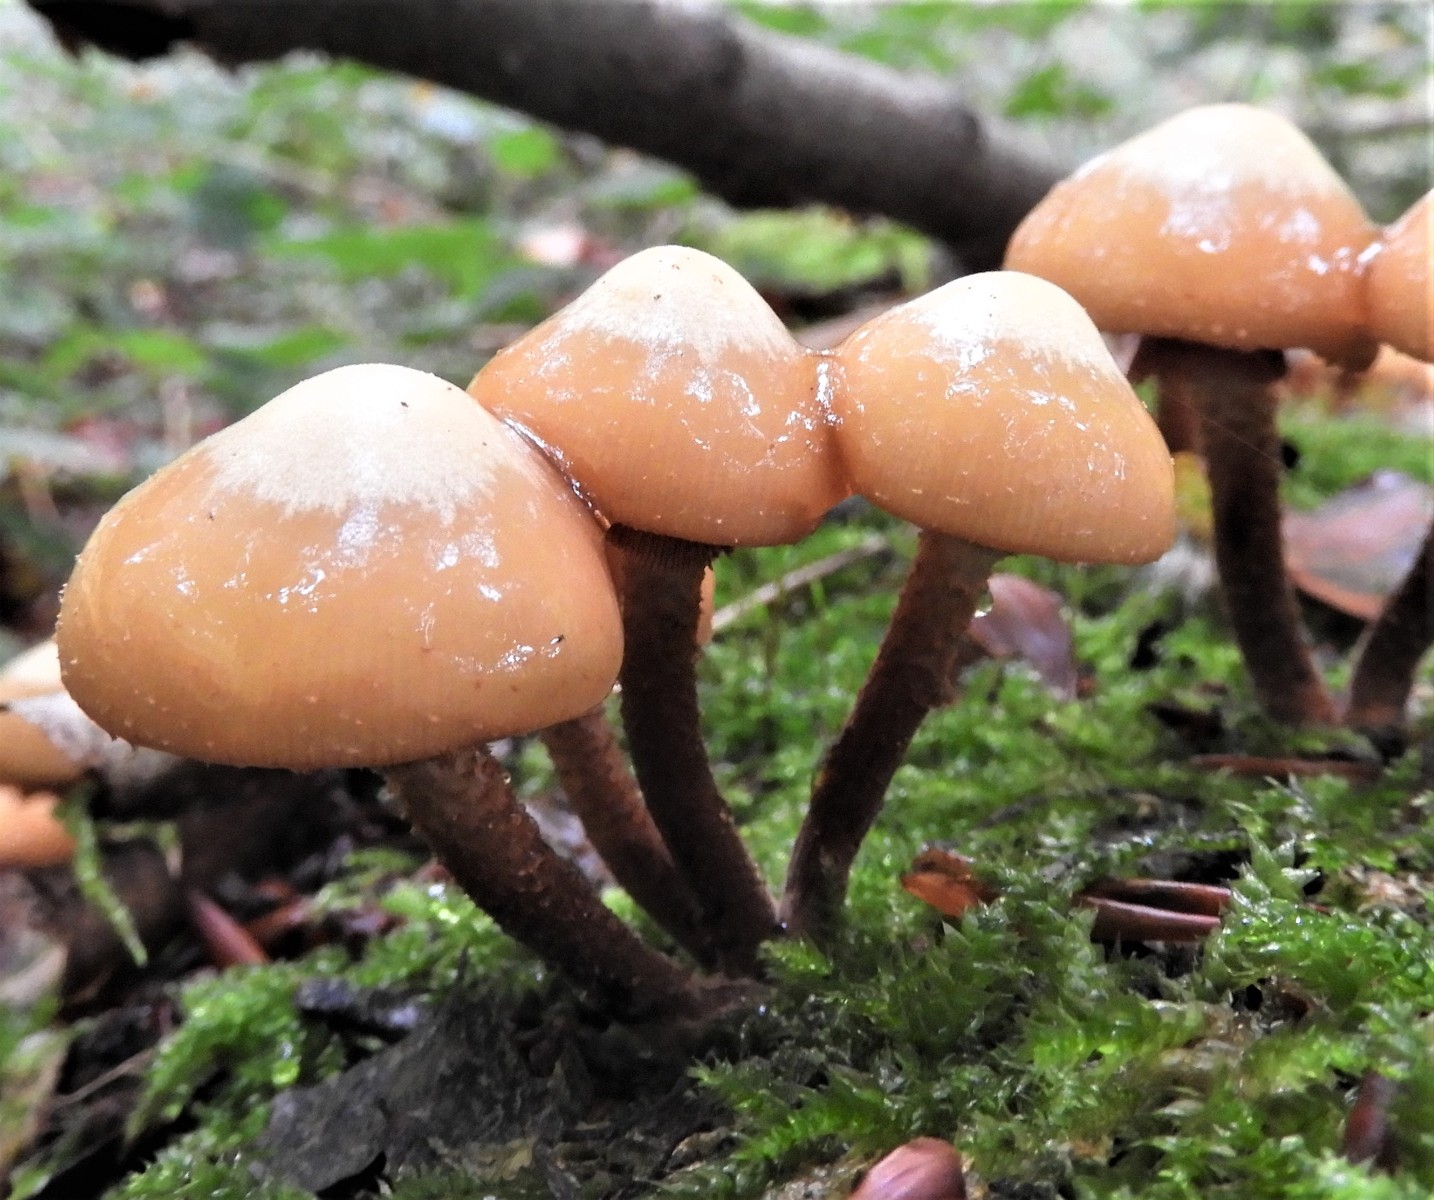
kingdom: Fungi
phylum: Basidiomycota
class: Agaricomycetes
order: Agaricales
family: Strophariaceae
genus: Kuehneromyces
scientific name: Kuehneromyces mutabilis
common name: foranderlig skælhat
